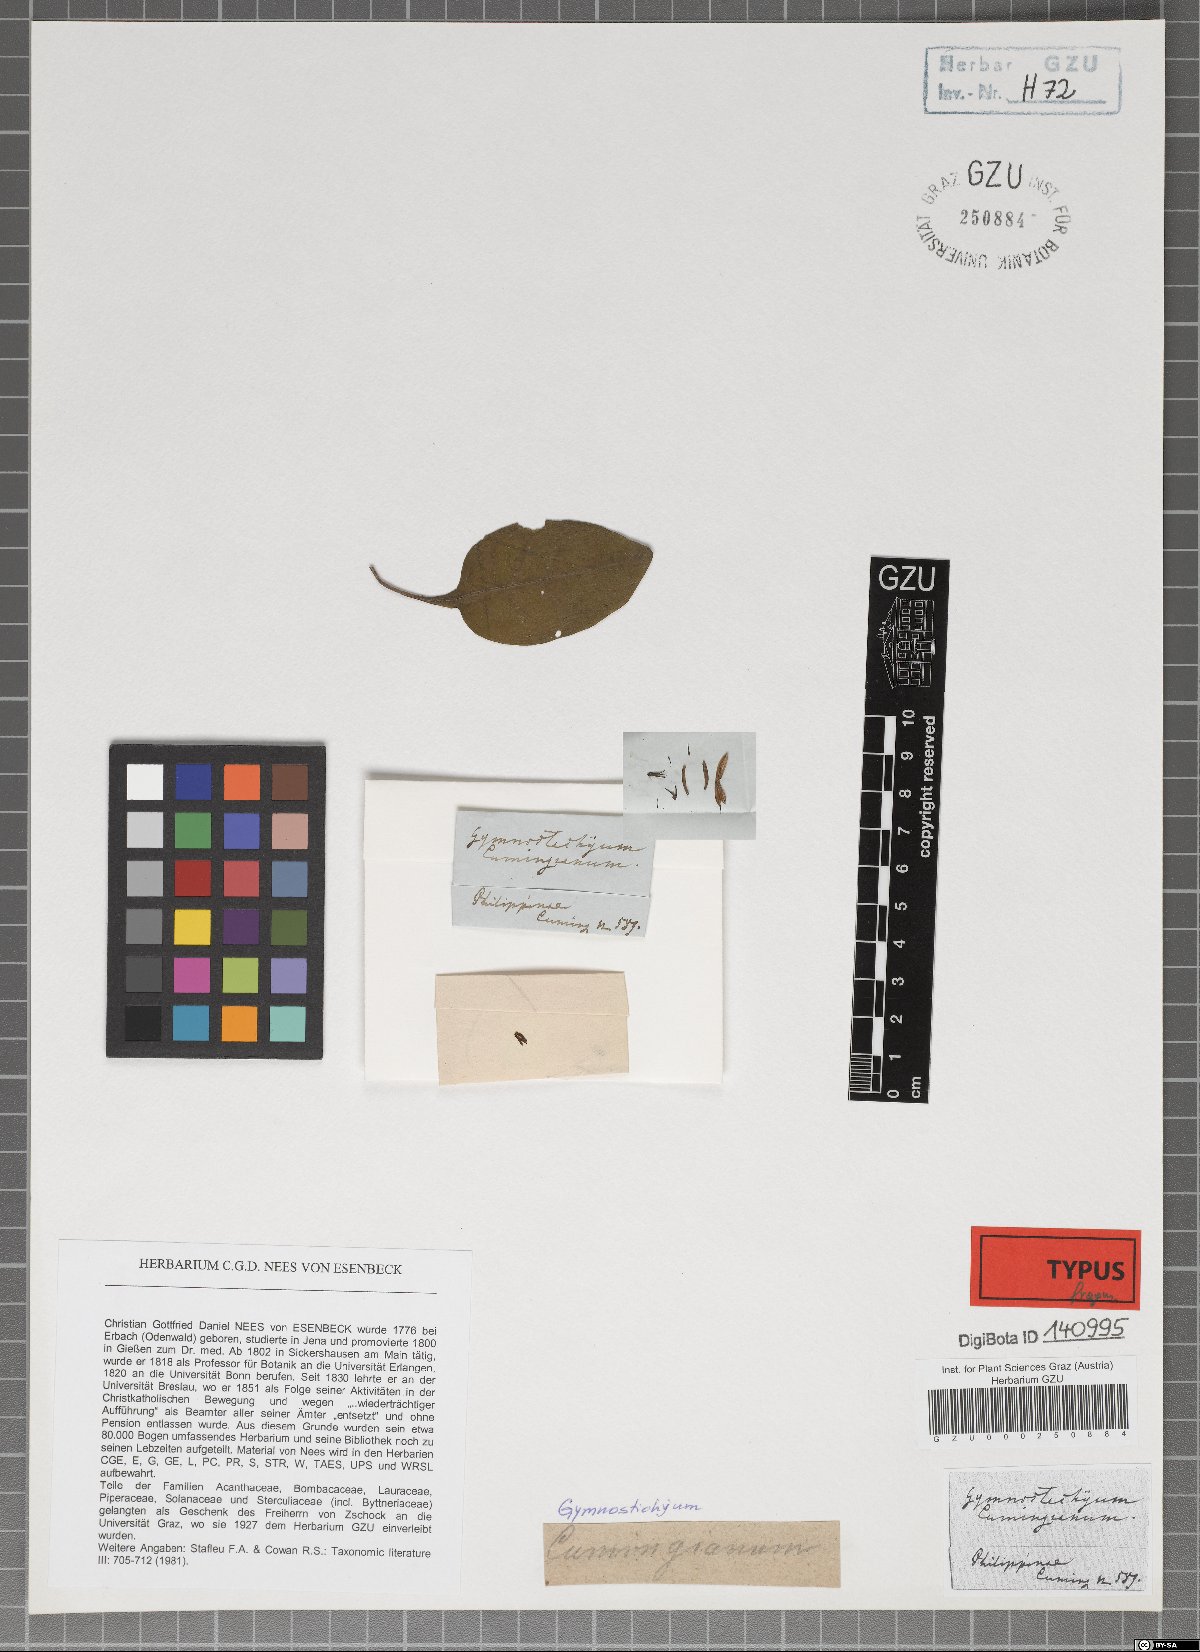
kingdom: Plantae
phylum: Tracheophyta
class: Magnoliopsida
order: Lamiales
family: Acanthaceae
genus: Gymnostachyum
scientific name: Gymnostachyum cumingianum
